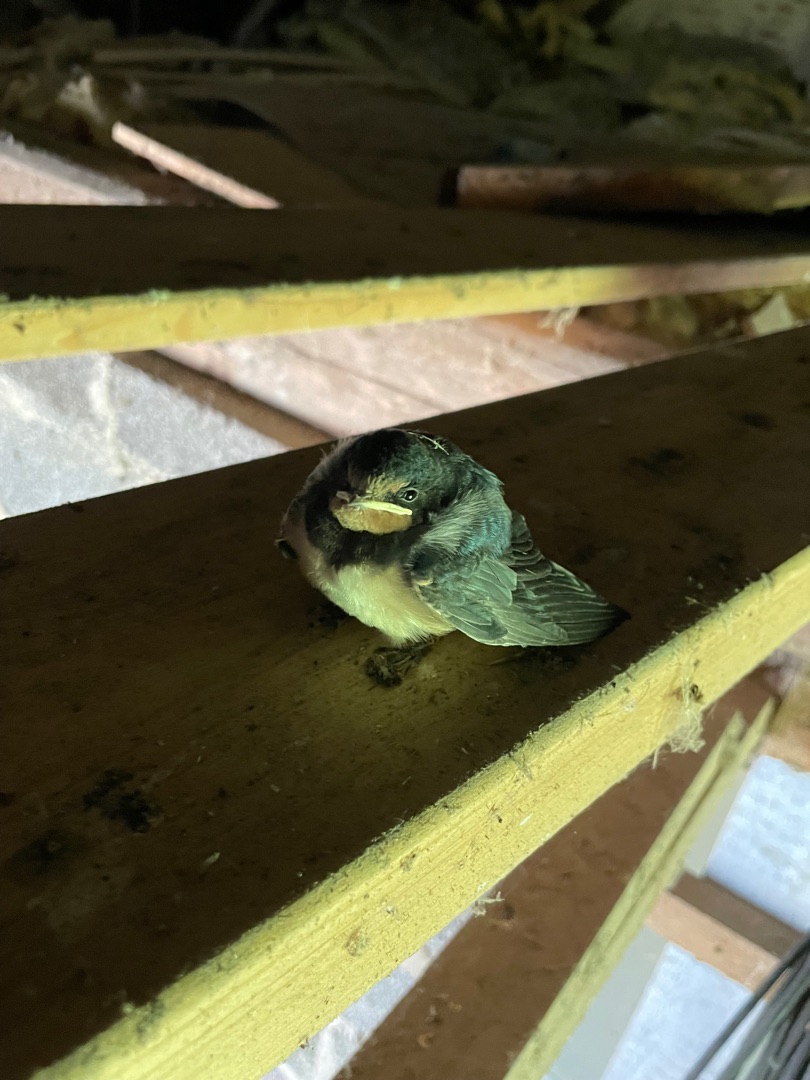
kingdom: Animalia
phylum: Chordata
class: Aves
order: Passeriformes
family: Hirundinidae
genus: Hirundo
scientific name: Hirundo rustica
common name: Landsvale
